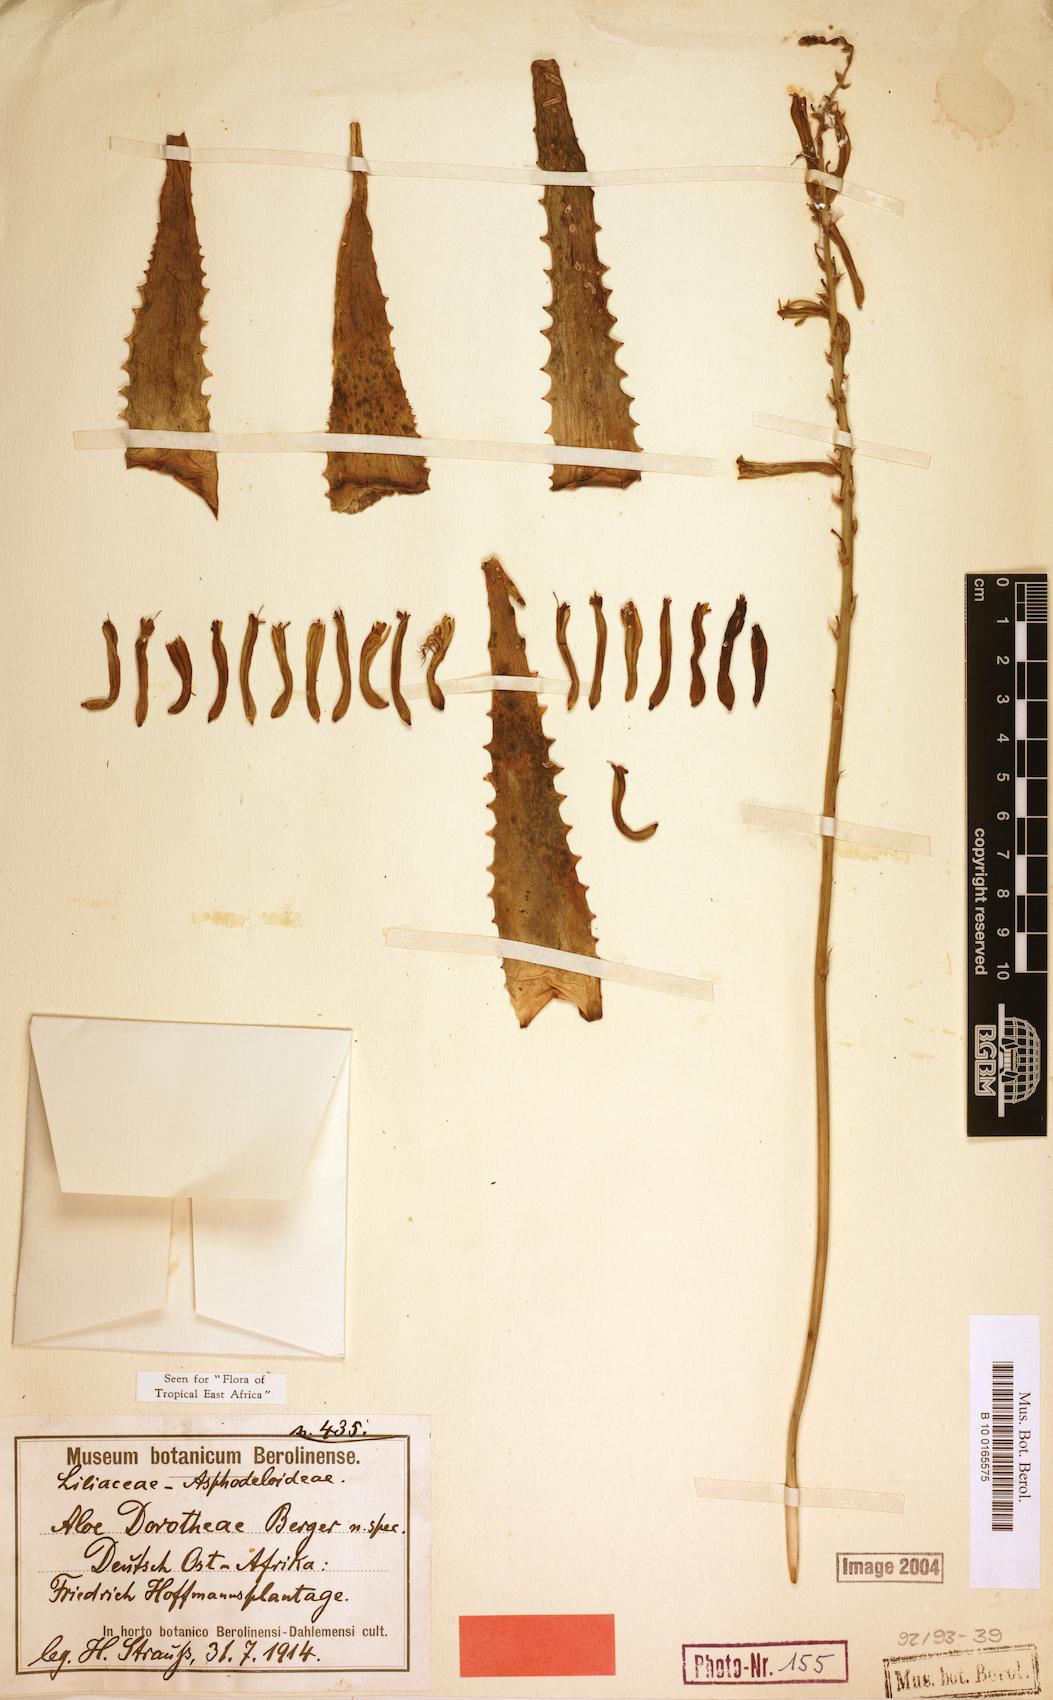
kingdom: Plantae
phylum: Tracheophyta
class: Liliopsida
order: Asparagales
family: Asphodelaceae
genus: Aloe
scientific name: Aloe dorotheae
